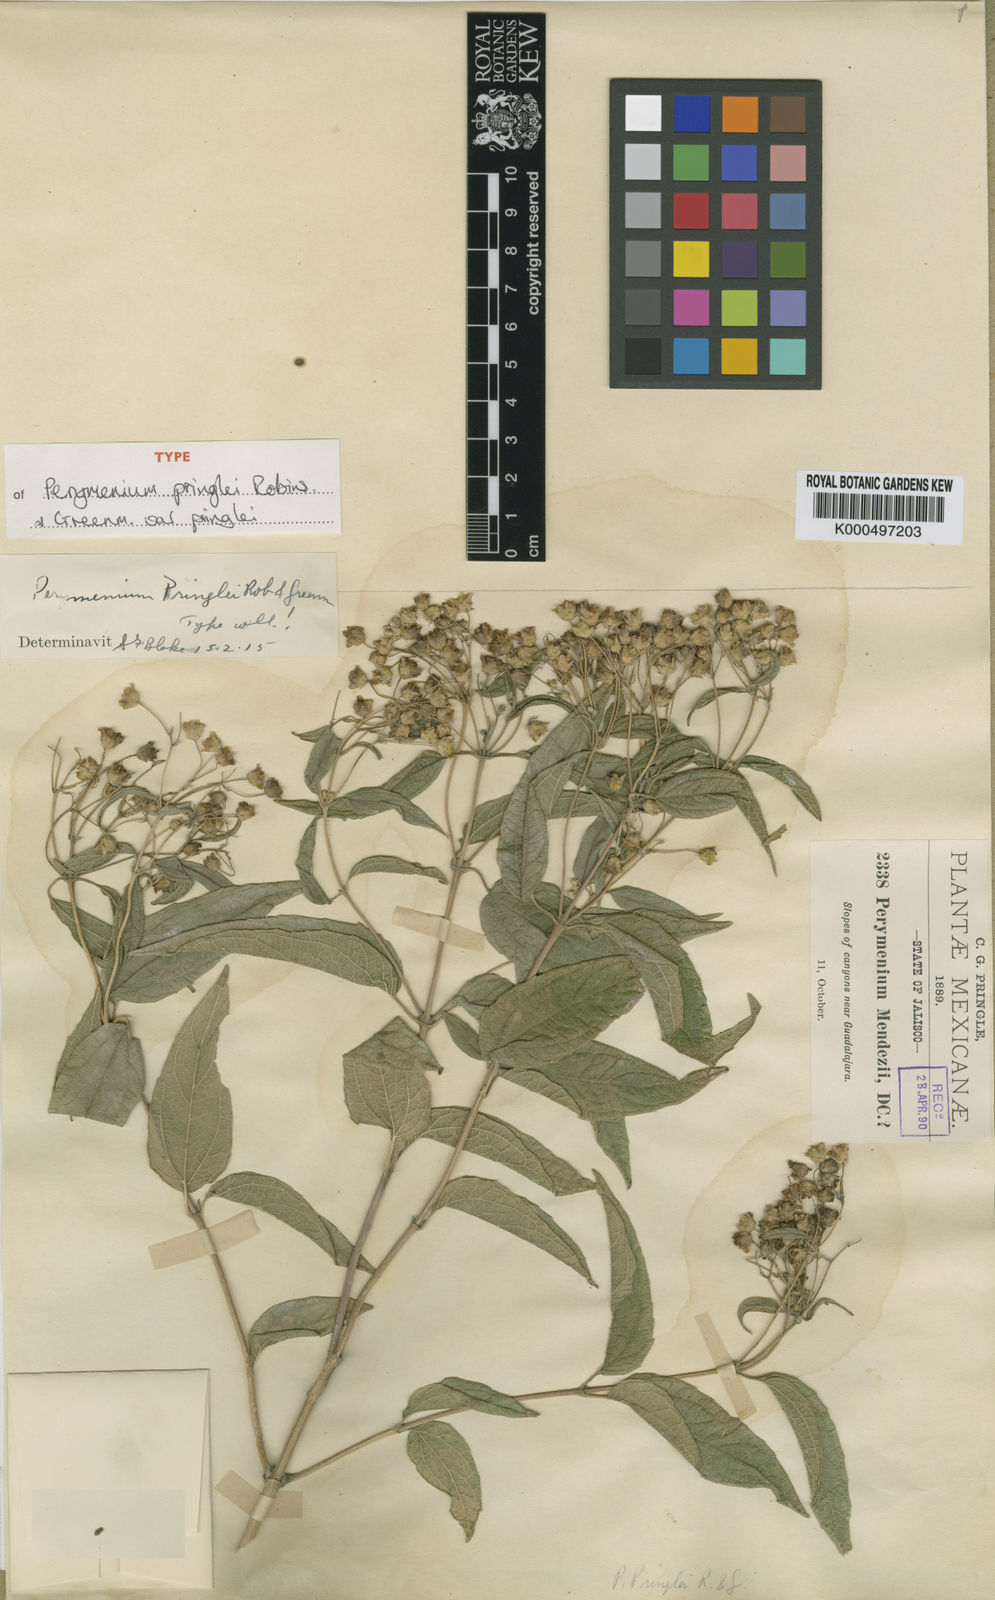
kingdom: Plantae
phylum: Tracheophyta
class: Magnoliopsida
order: Asterales
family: Asteraceae
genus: Perymenium
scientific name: Perymenium pringlei
